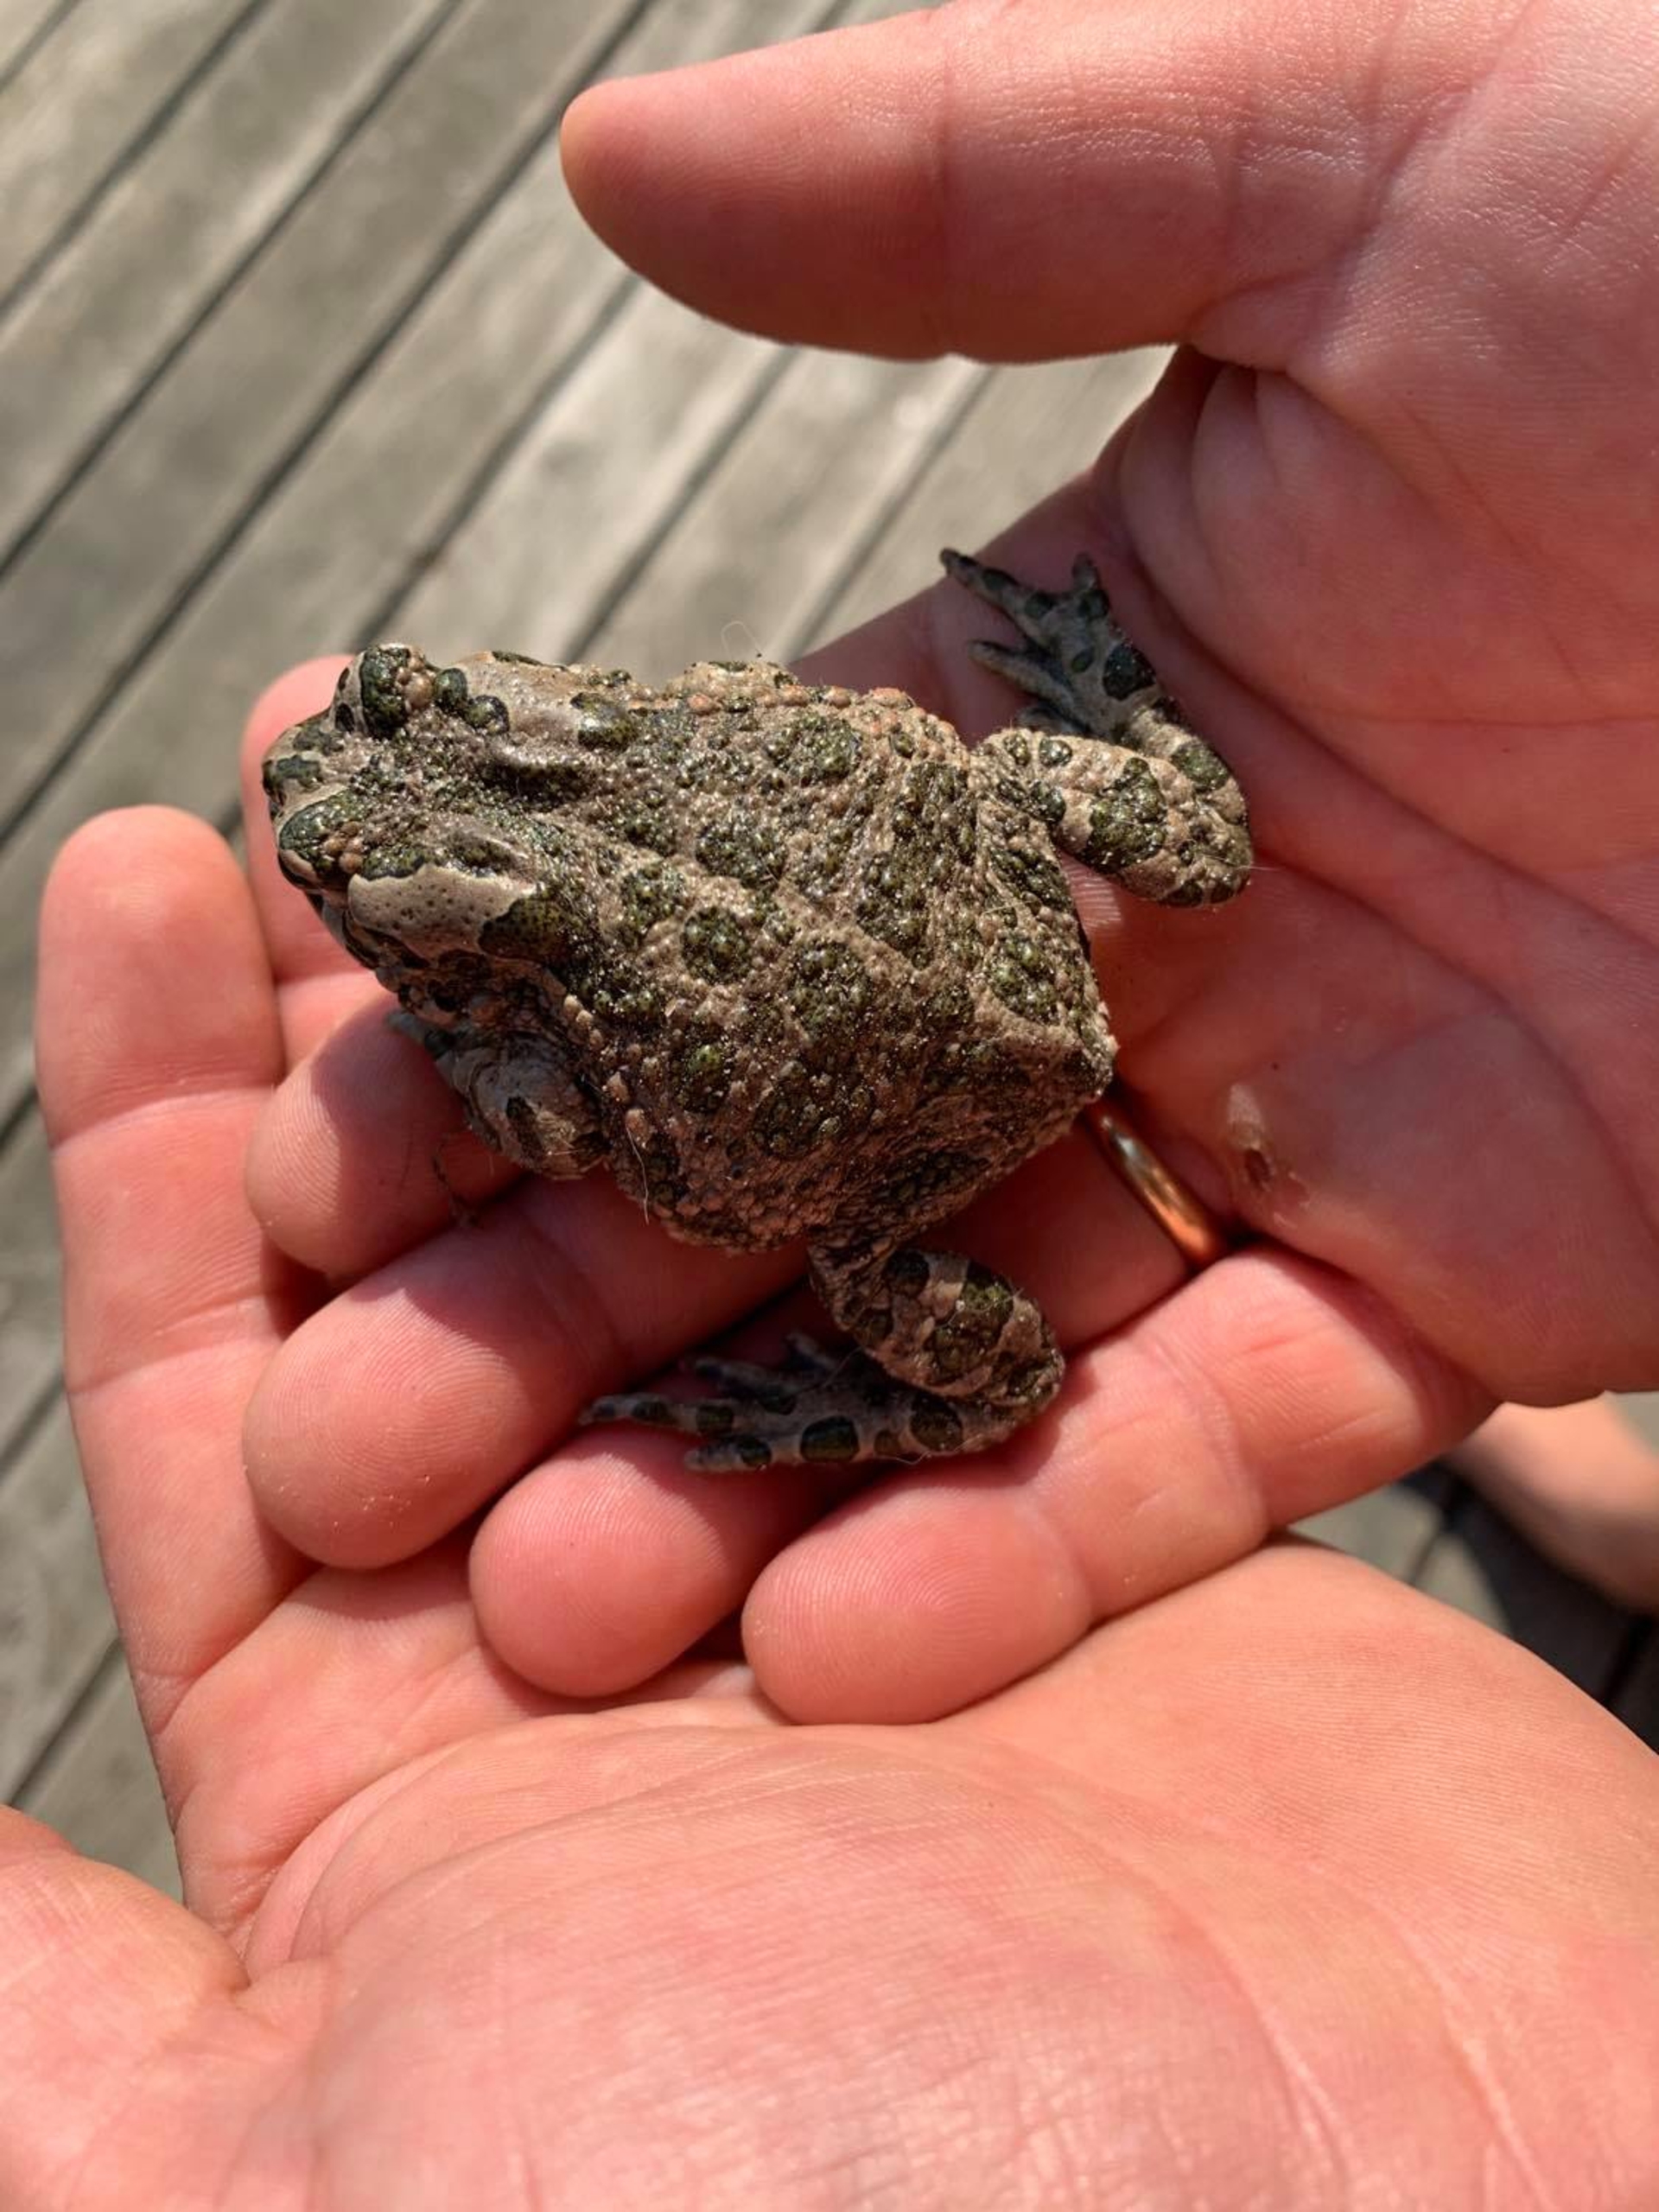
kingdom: Animalia
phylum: Chordata
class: Amphibia
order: Anura
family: Bufonidae
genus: Bufotes
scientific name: Bufotes viridis
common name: Grønbroget tudse
